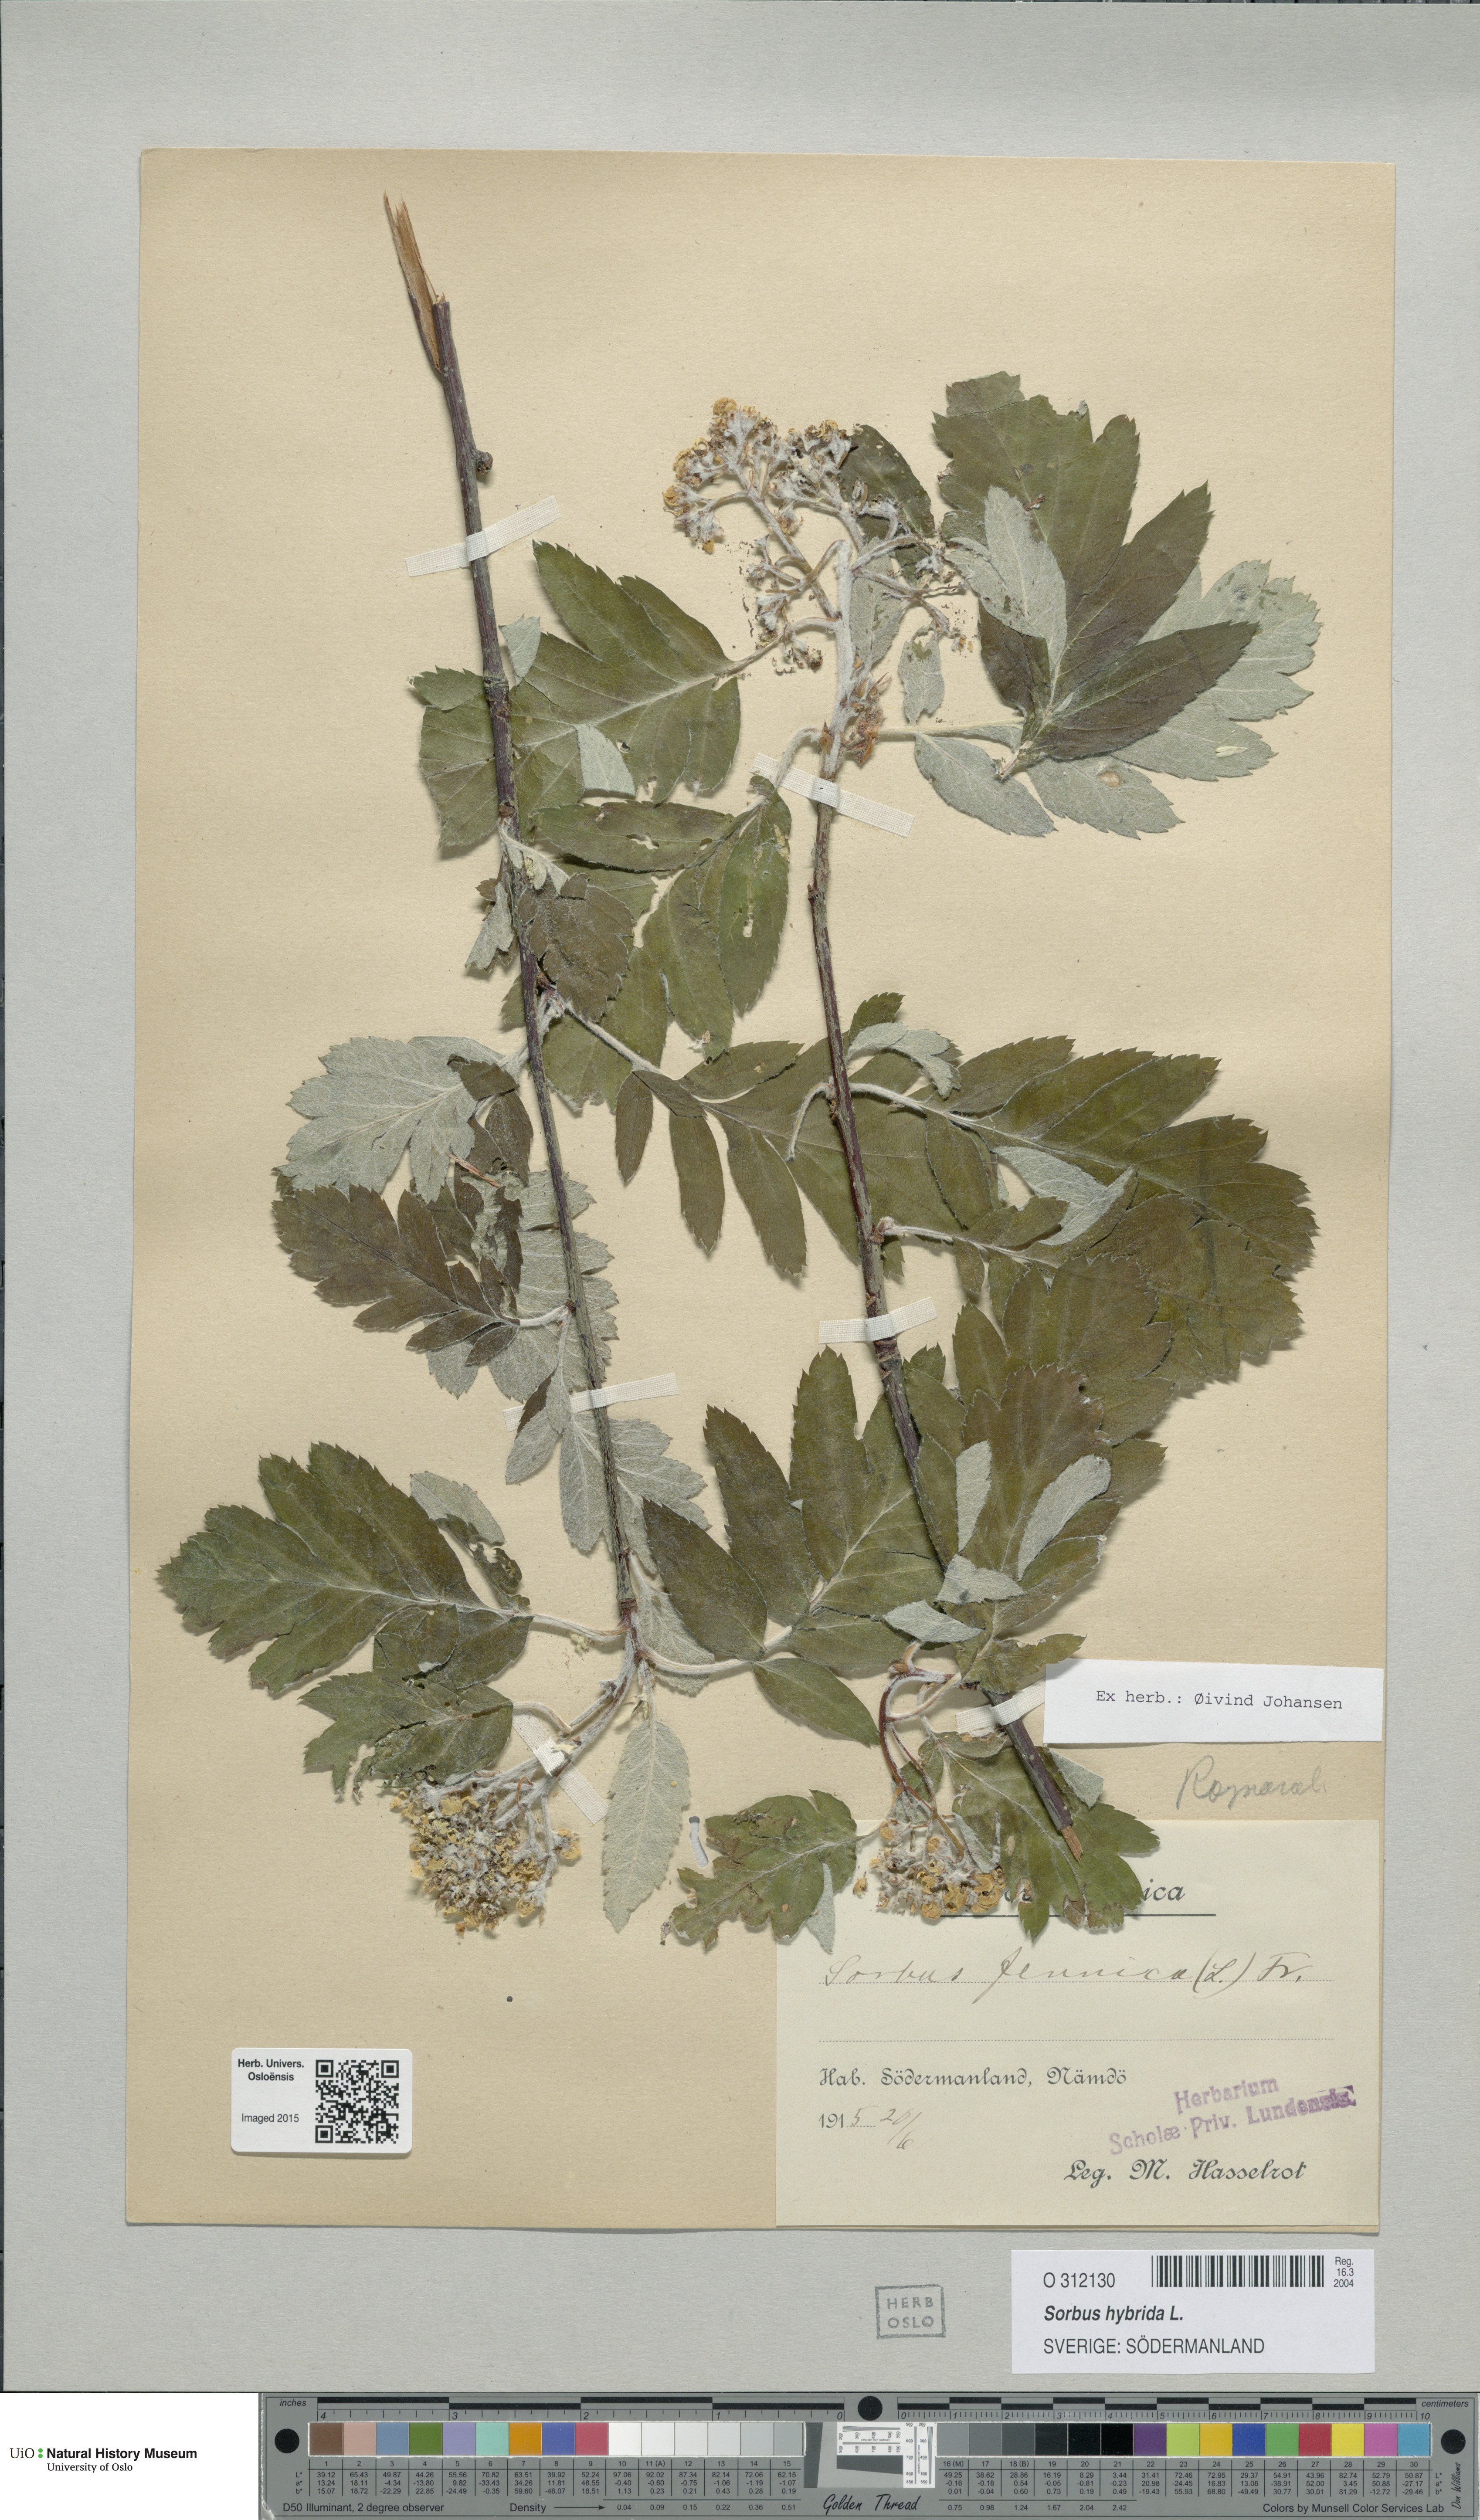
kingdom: Plantae
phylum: Tracheophyta
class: Magnoliopsida
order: Rosales
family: Rosaceae
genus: Hedlundia
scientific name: Hedlundia hybrida
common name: Swedish service-tree
